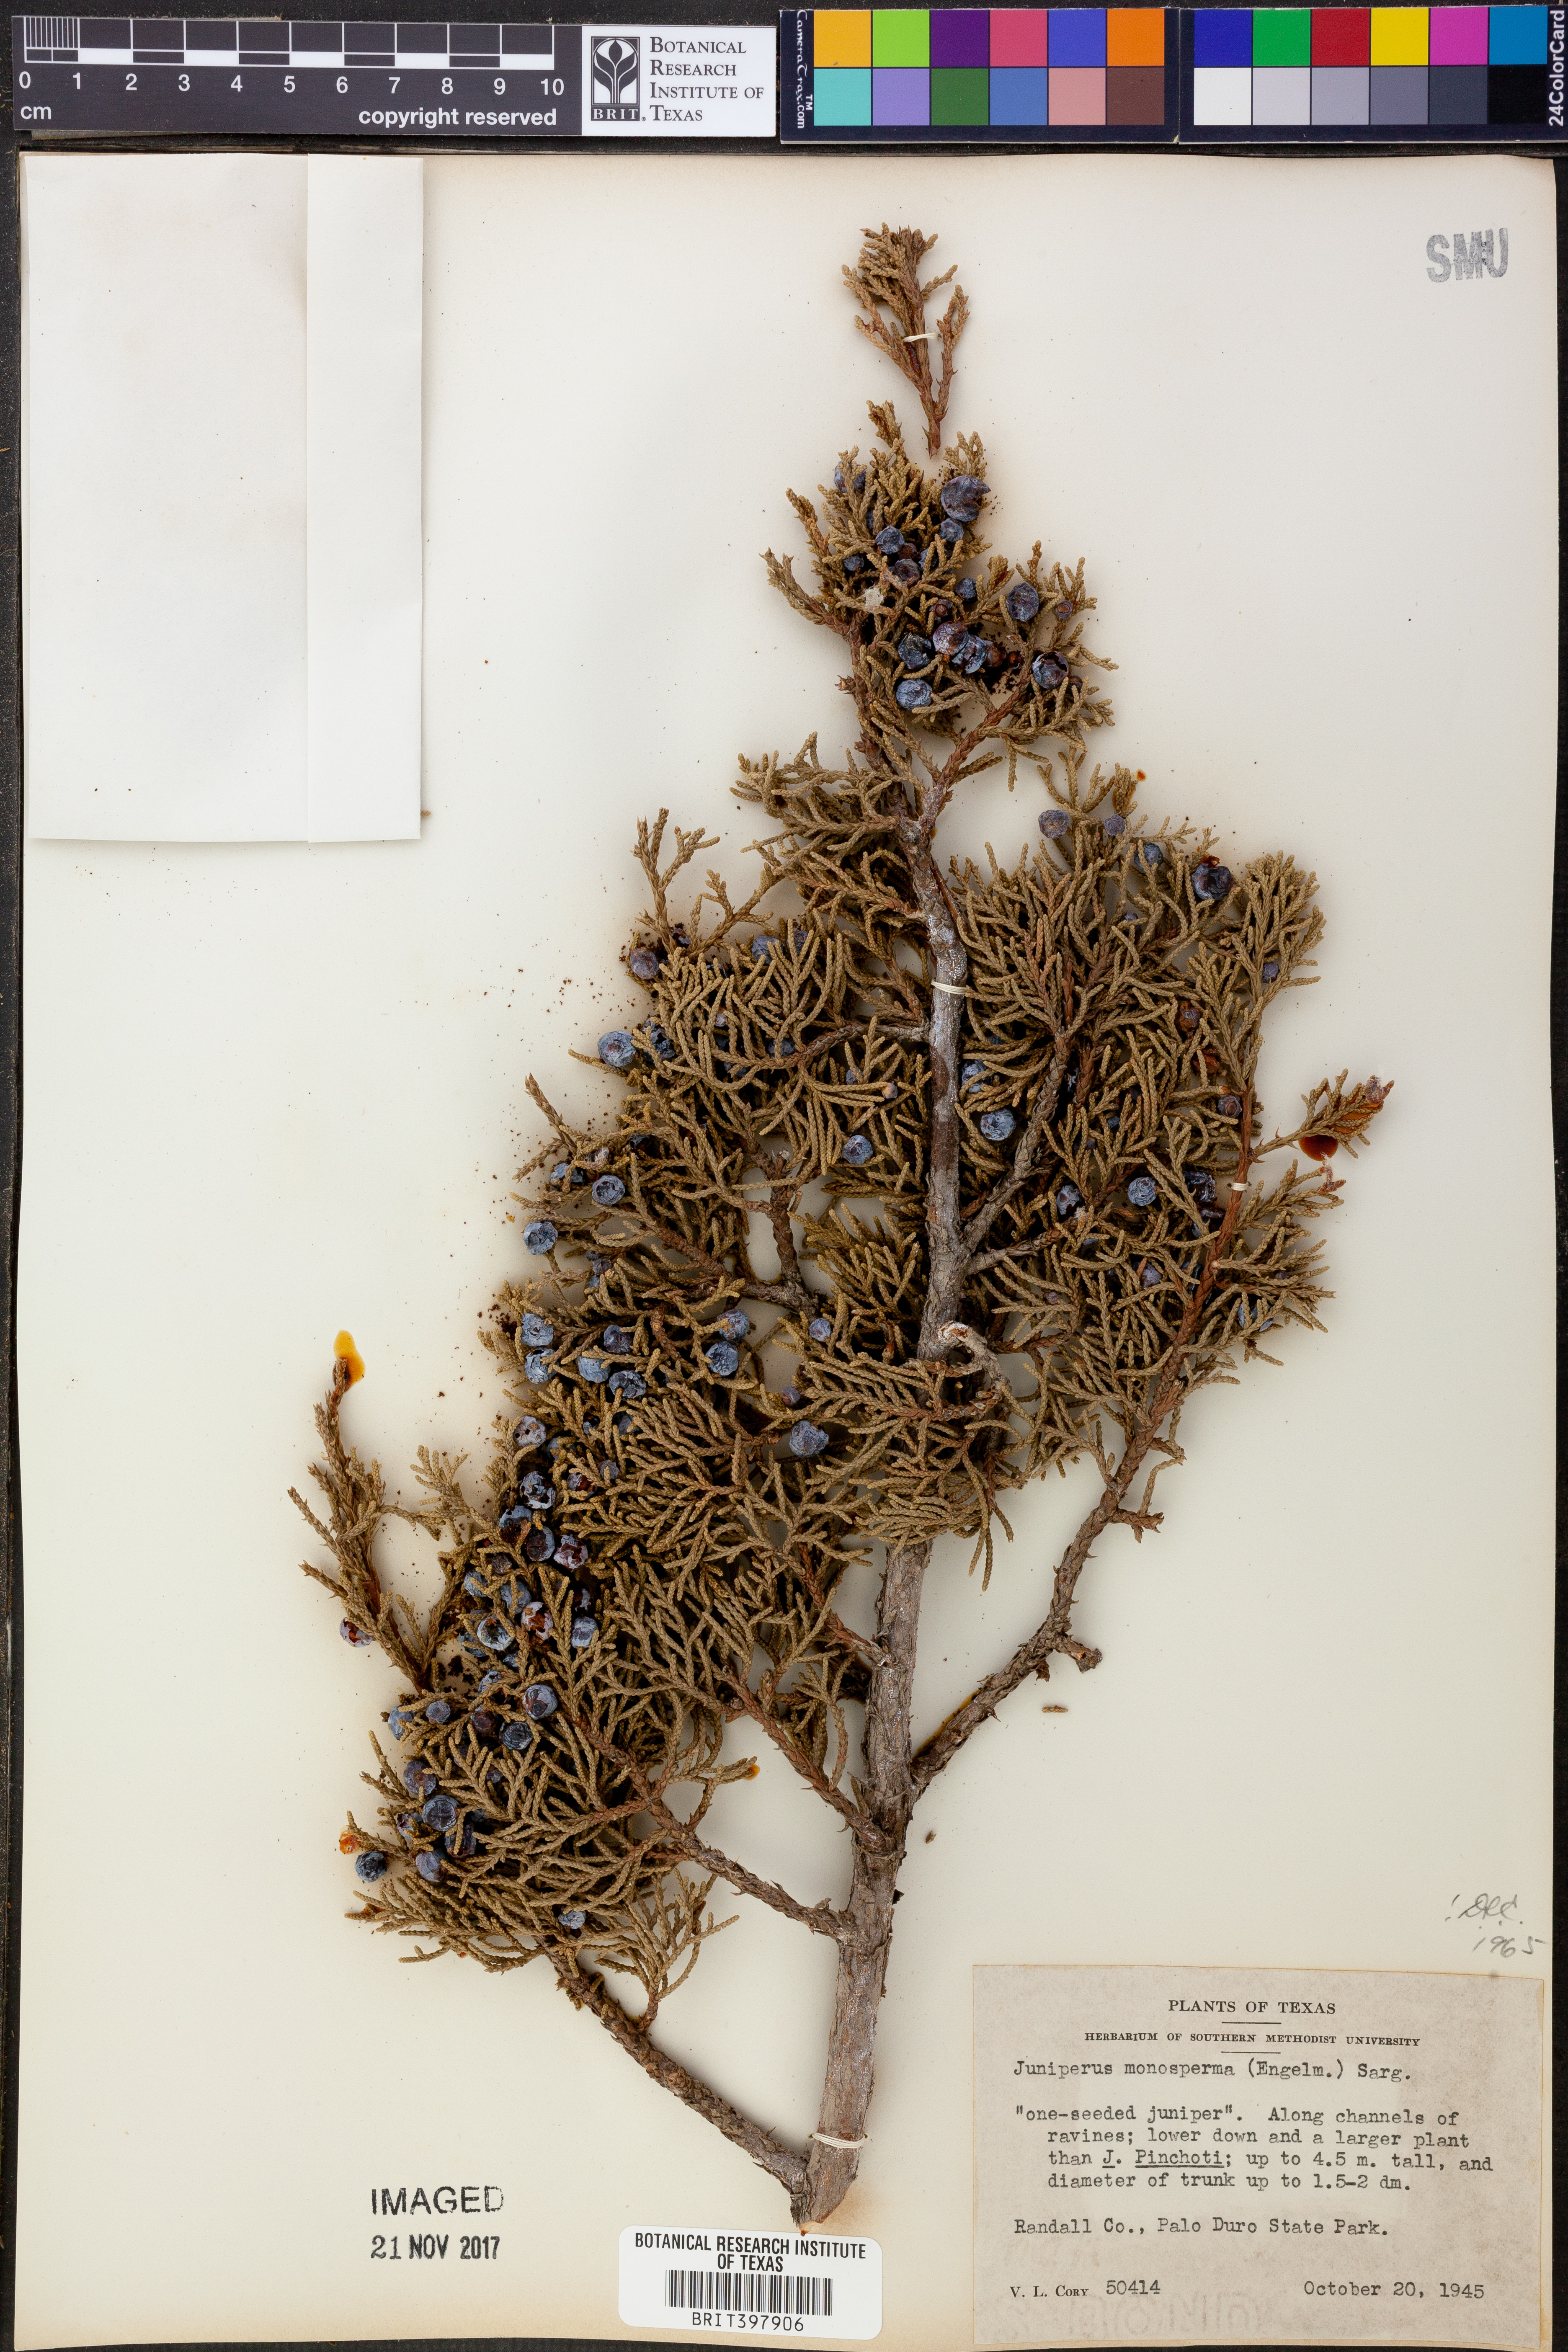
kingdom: Plantae
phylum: Tracheophyta
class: Pinopsida
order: Pinales
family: Cupressaceae
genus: Juniperus
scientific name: Juniperus monosperma
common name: One-seed juniper
